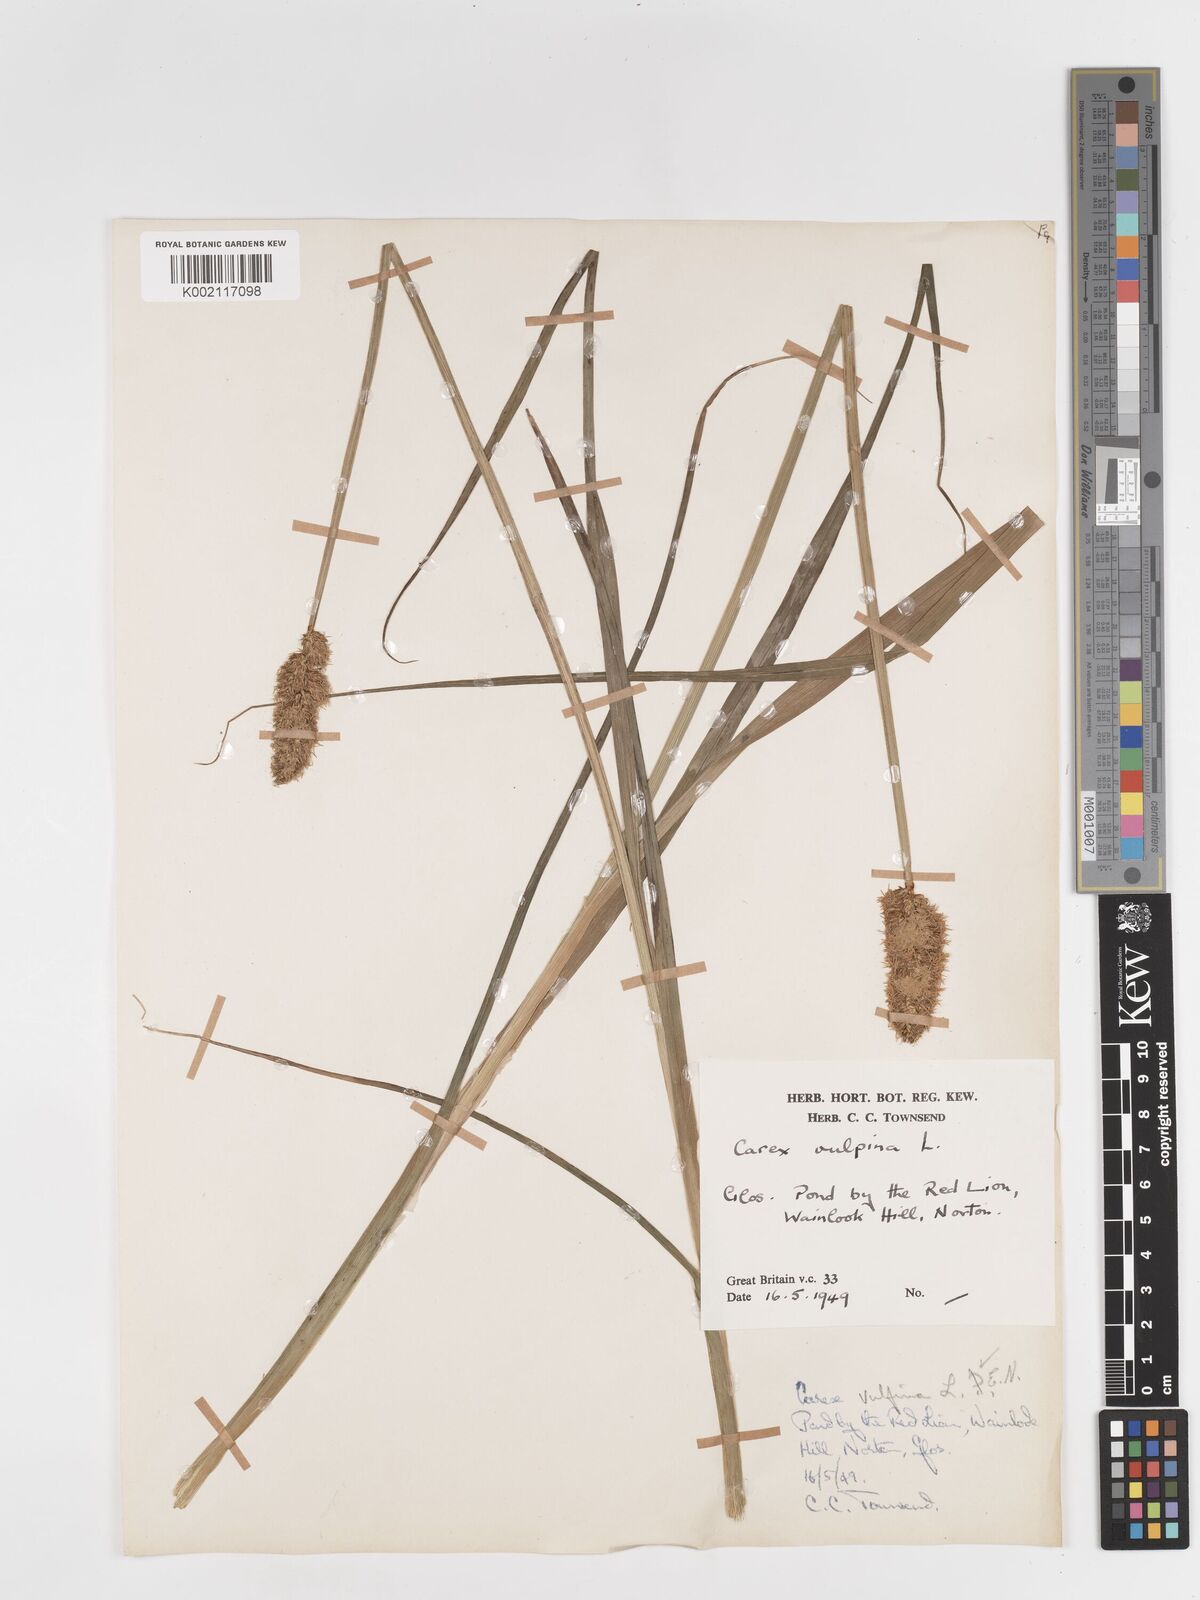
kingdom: Plantae
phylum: Tracheophyta
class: Liliopsida
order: Poales
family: Cyperaceae
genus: Carex
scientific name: Carex vulpina
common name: True fox-sedge
